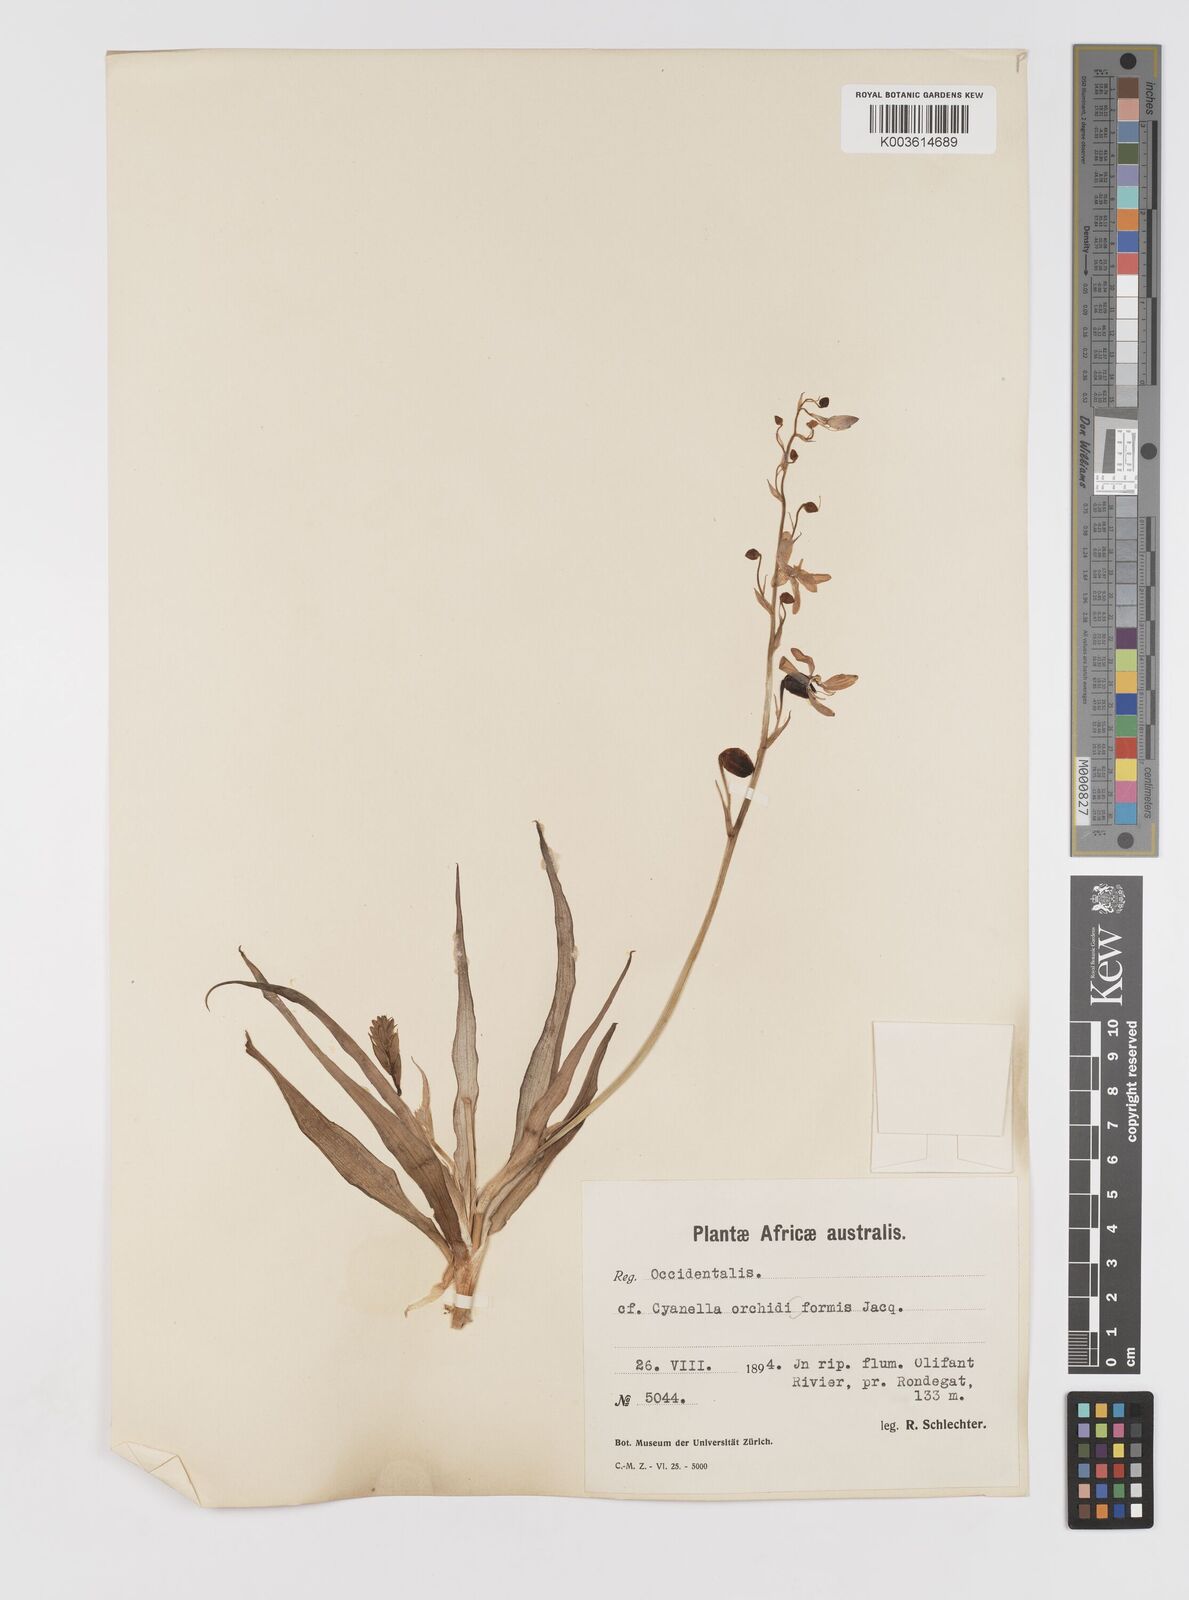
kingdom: Plantae
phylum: Tracheophyta
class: Liliopsida
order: Asparagales
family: Tecophilaeaceae
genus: Cyanella
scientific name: Cyanella orchidiformis
